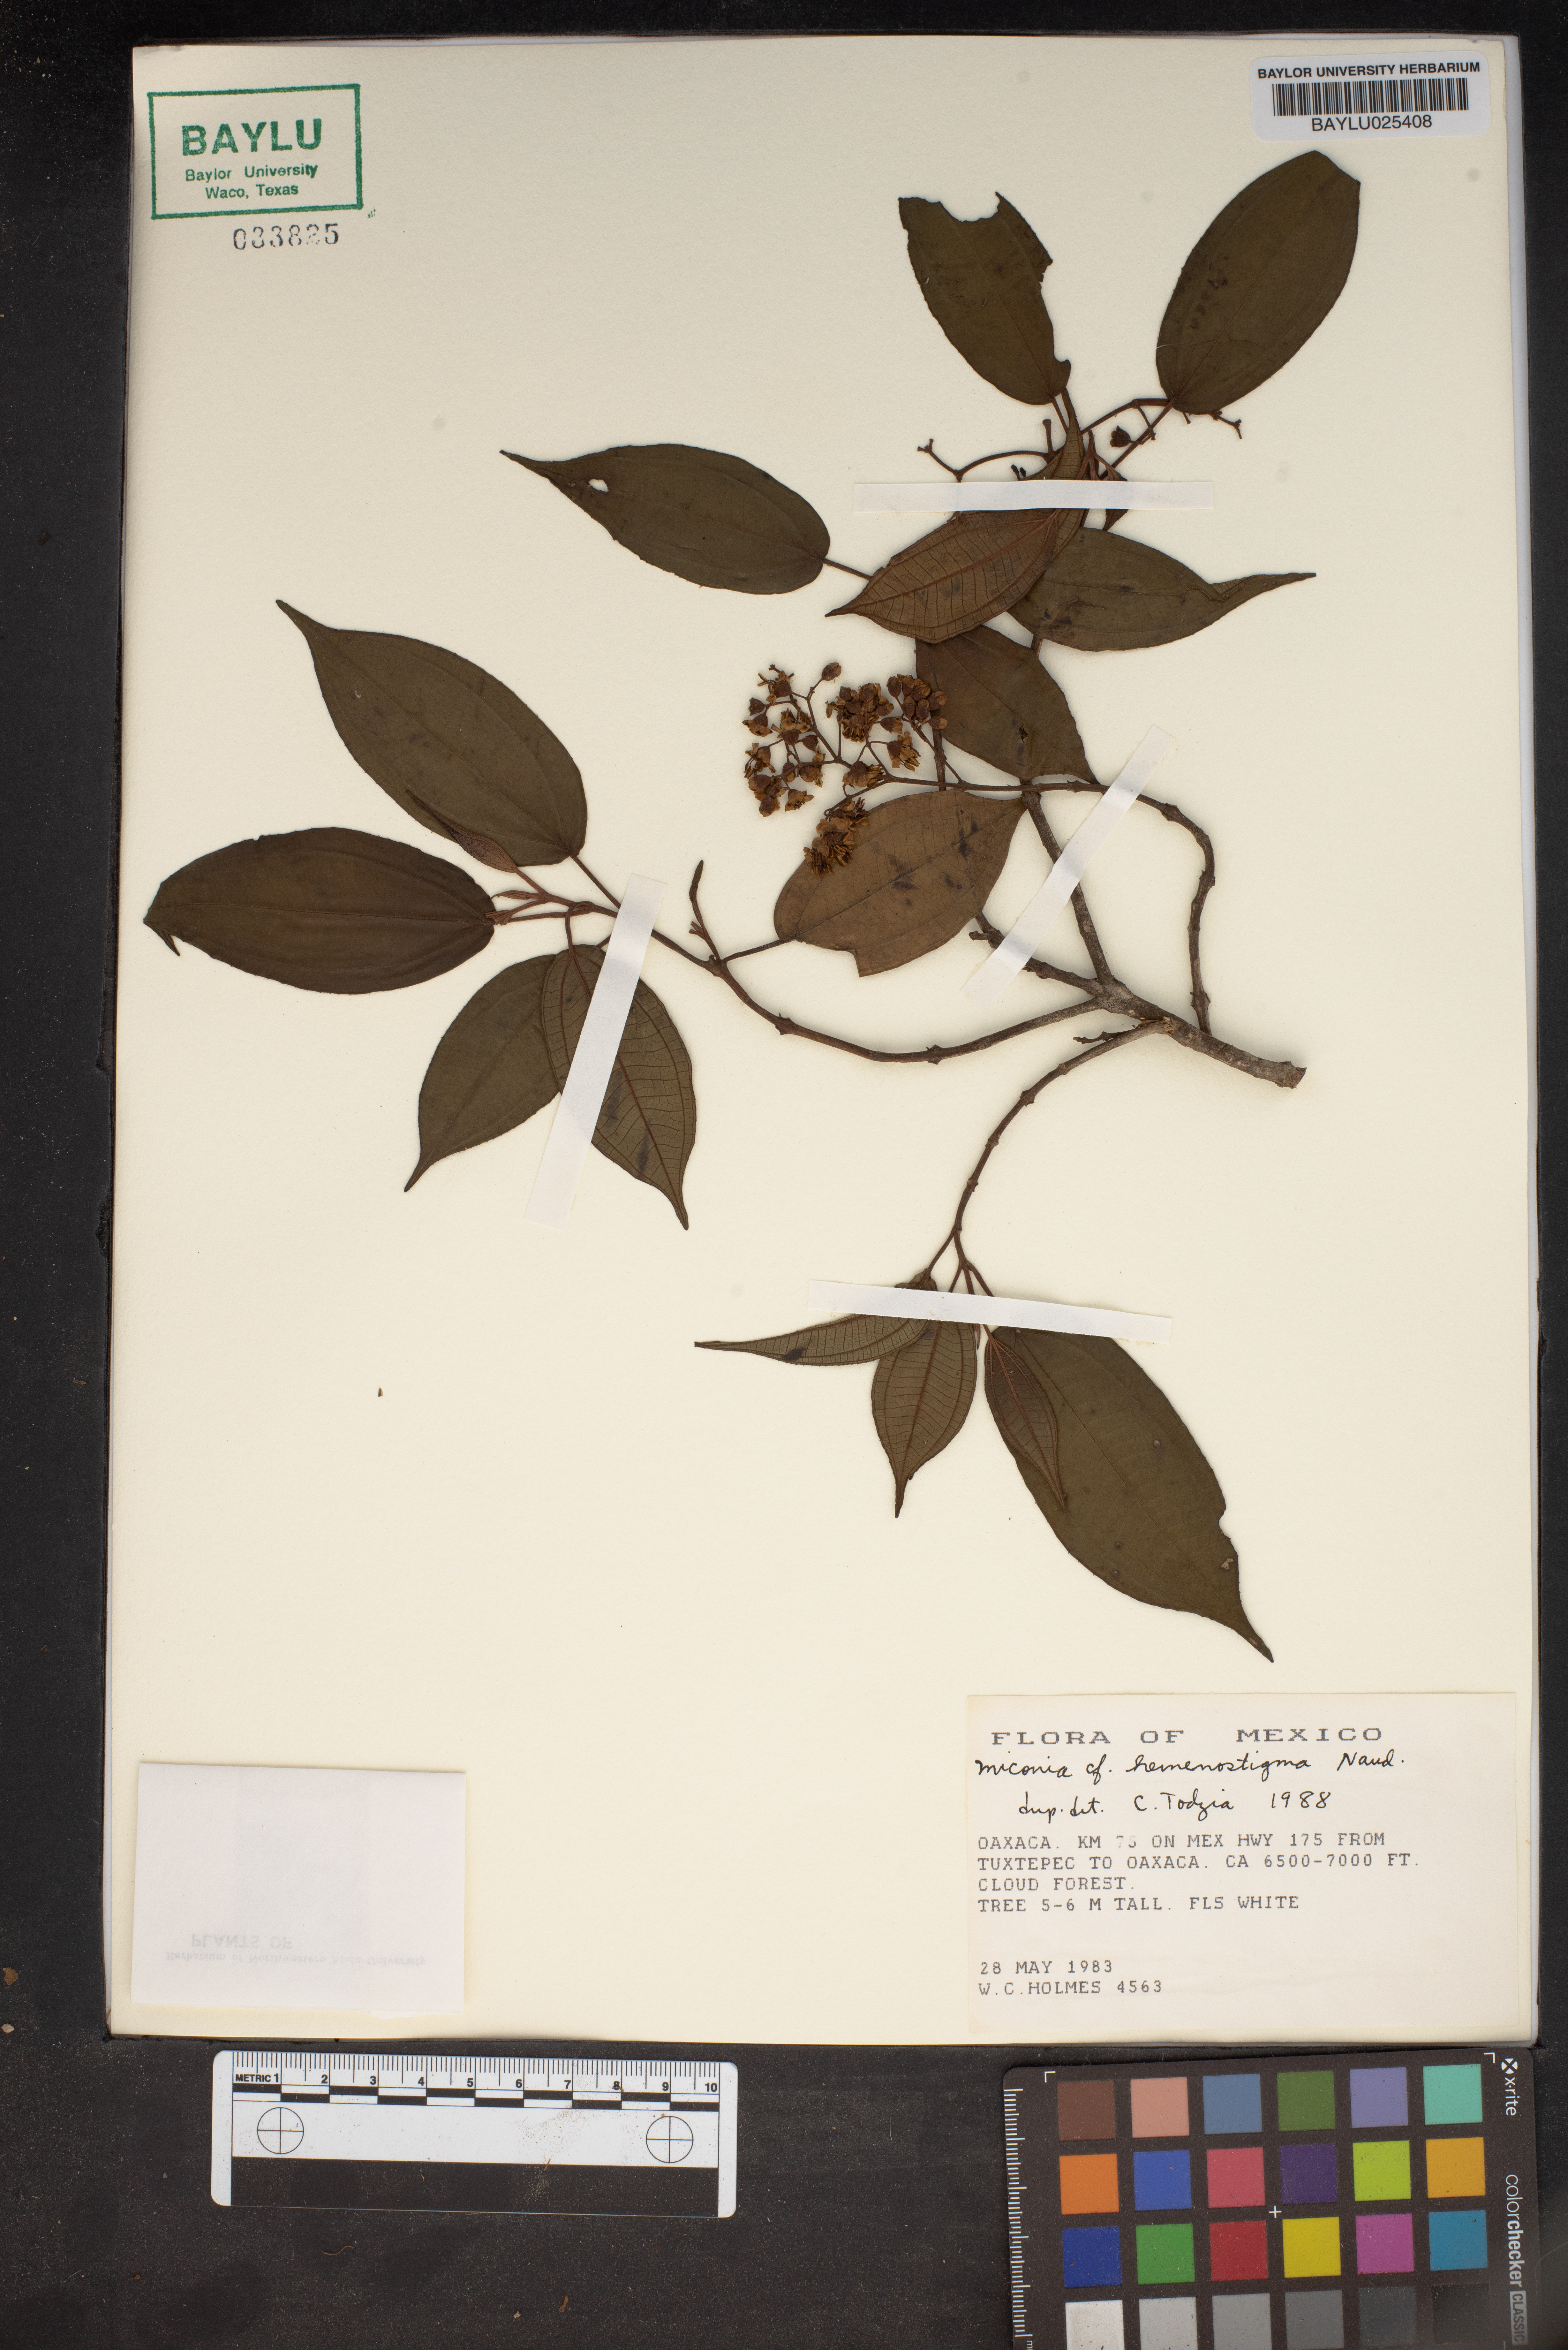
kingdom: Plantae
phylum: Tracheophyta
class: Magnoliopsida
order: Myrtales
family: Melastomataceae
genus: Miconia
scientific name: Miconia hemenostigma
